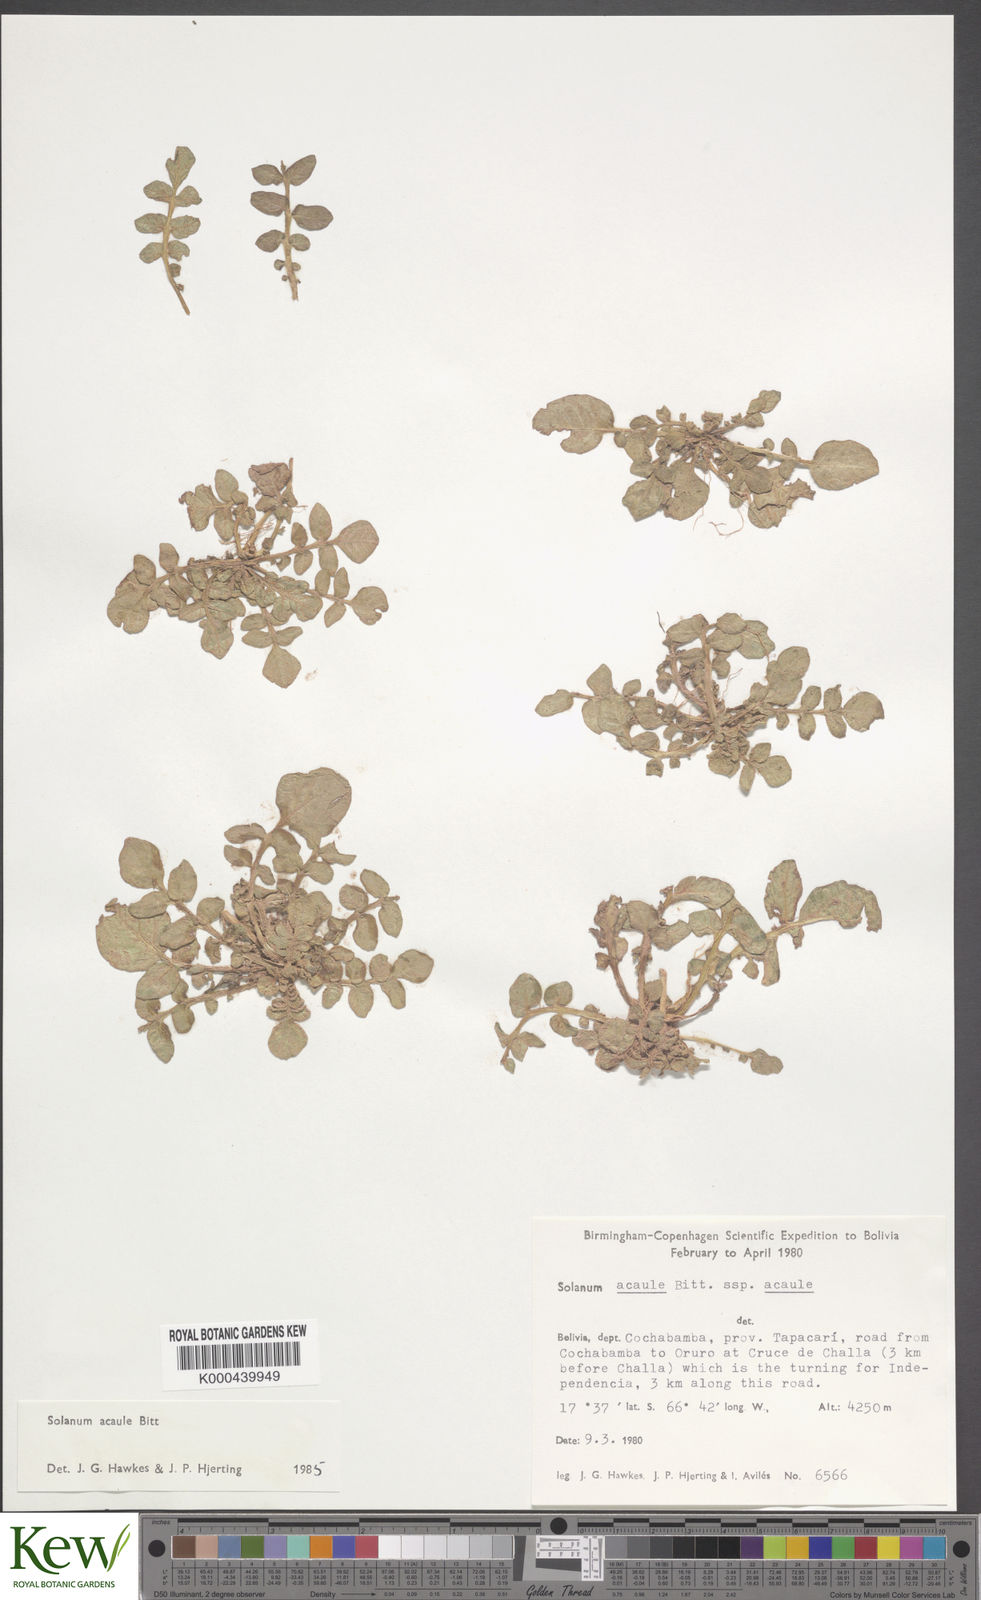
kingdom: Plantae
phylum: Tracheophyta
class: Magnoliopsida
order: Solanales
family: Solanaceae
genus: Solanum
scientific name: Solanum acaule
